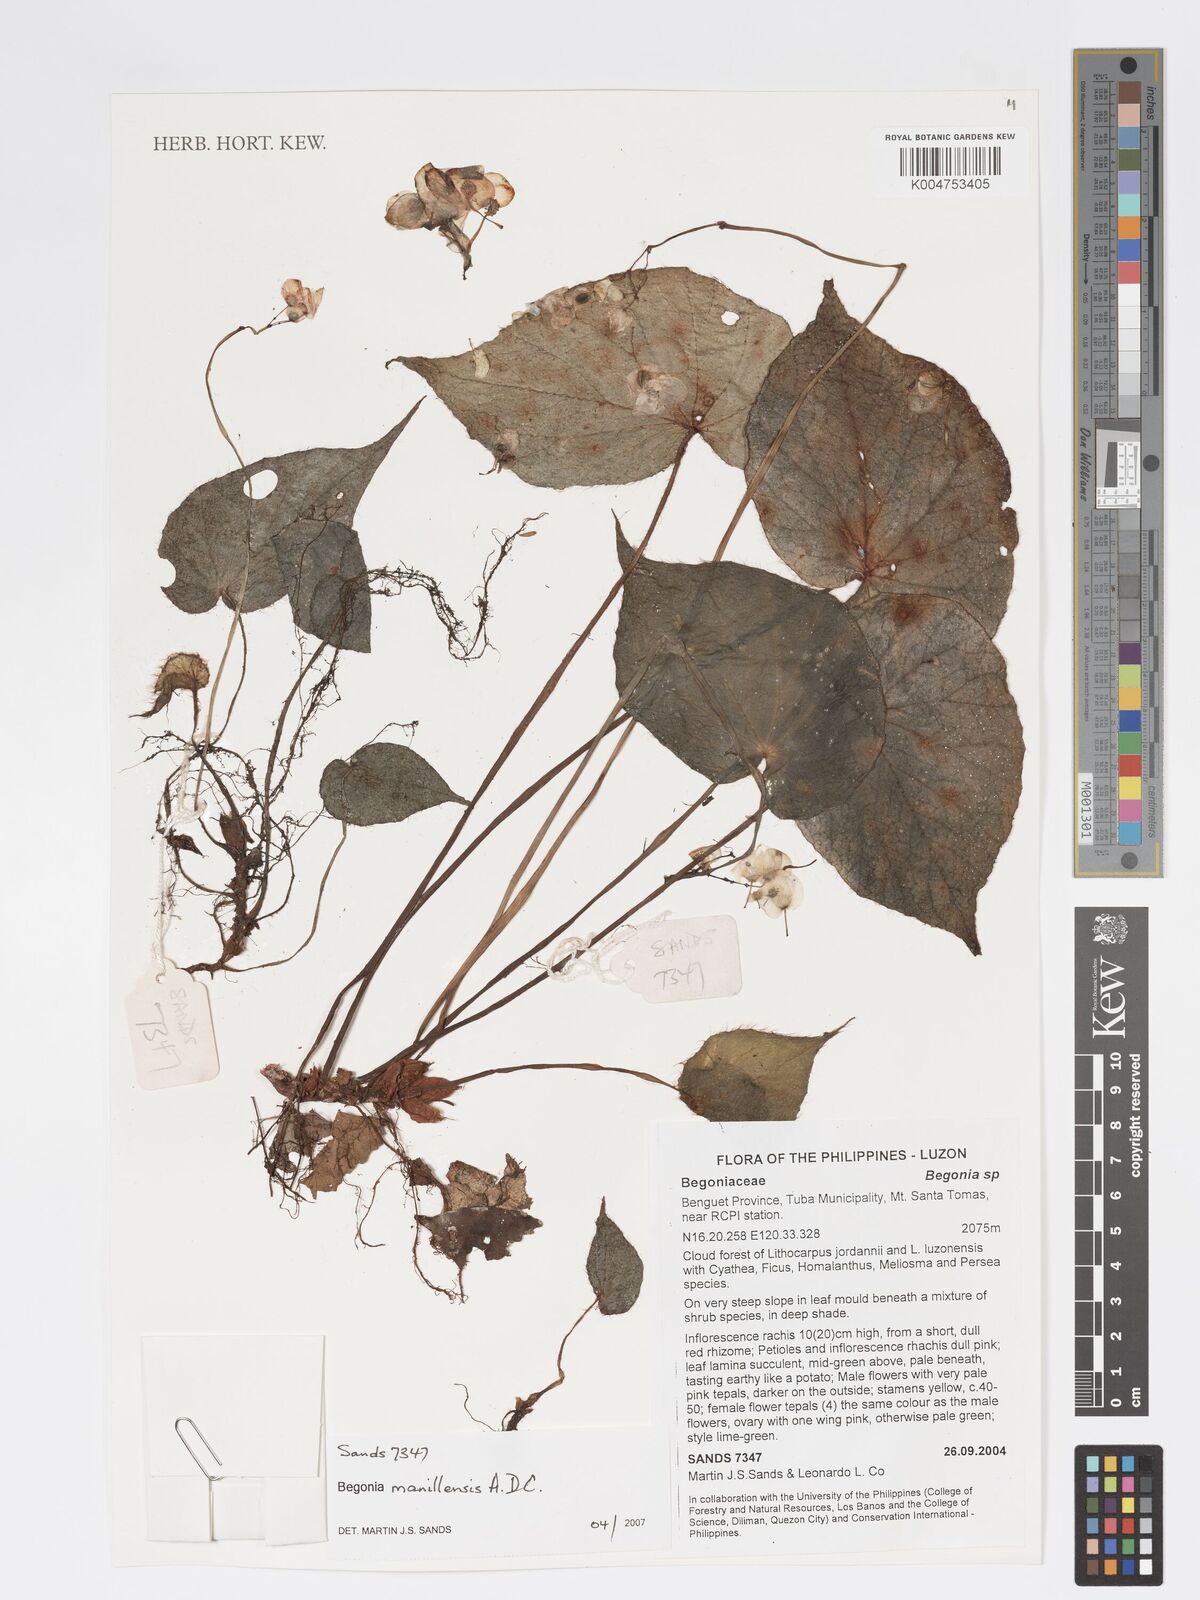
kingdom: Plantae
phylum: Tracheophyta
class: Magnoliopsida
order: Cucurbitales
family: Begoniaceae
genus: Begonia
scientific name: Begonia manillensis
